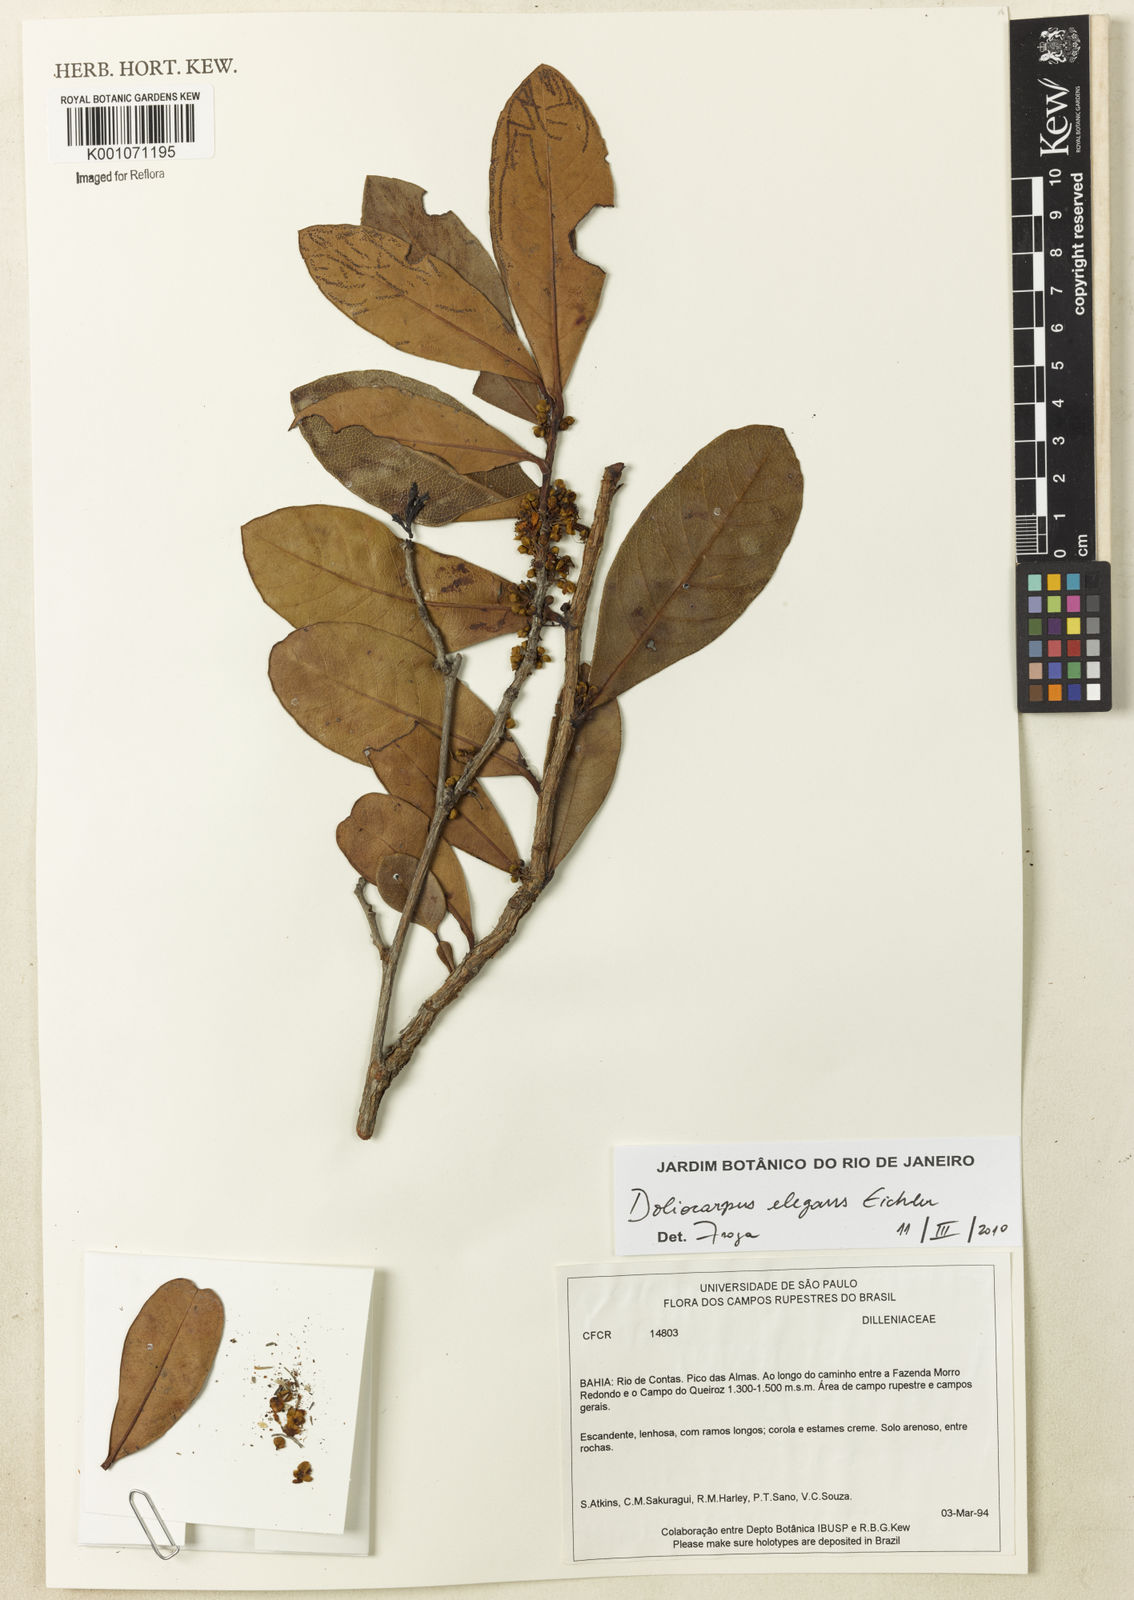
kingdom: Plantae
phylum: Tracheophyta
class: Magnoliopsida
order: Dilleniales
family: Dilleniaceae
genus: Doliocarpus
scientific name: Doliocarpus elegans
